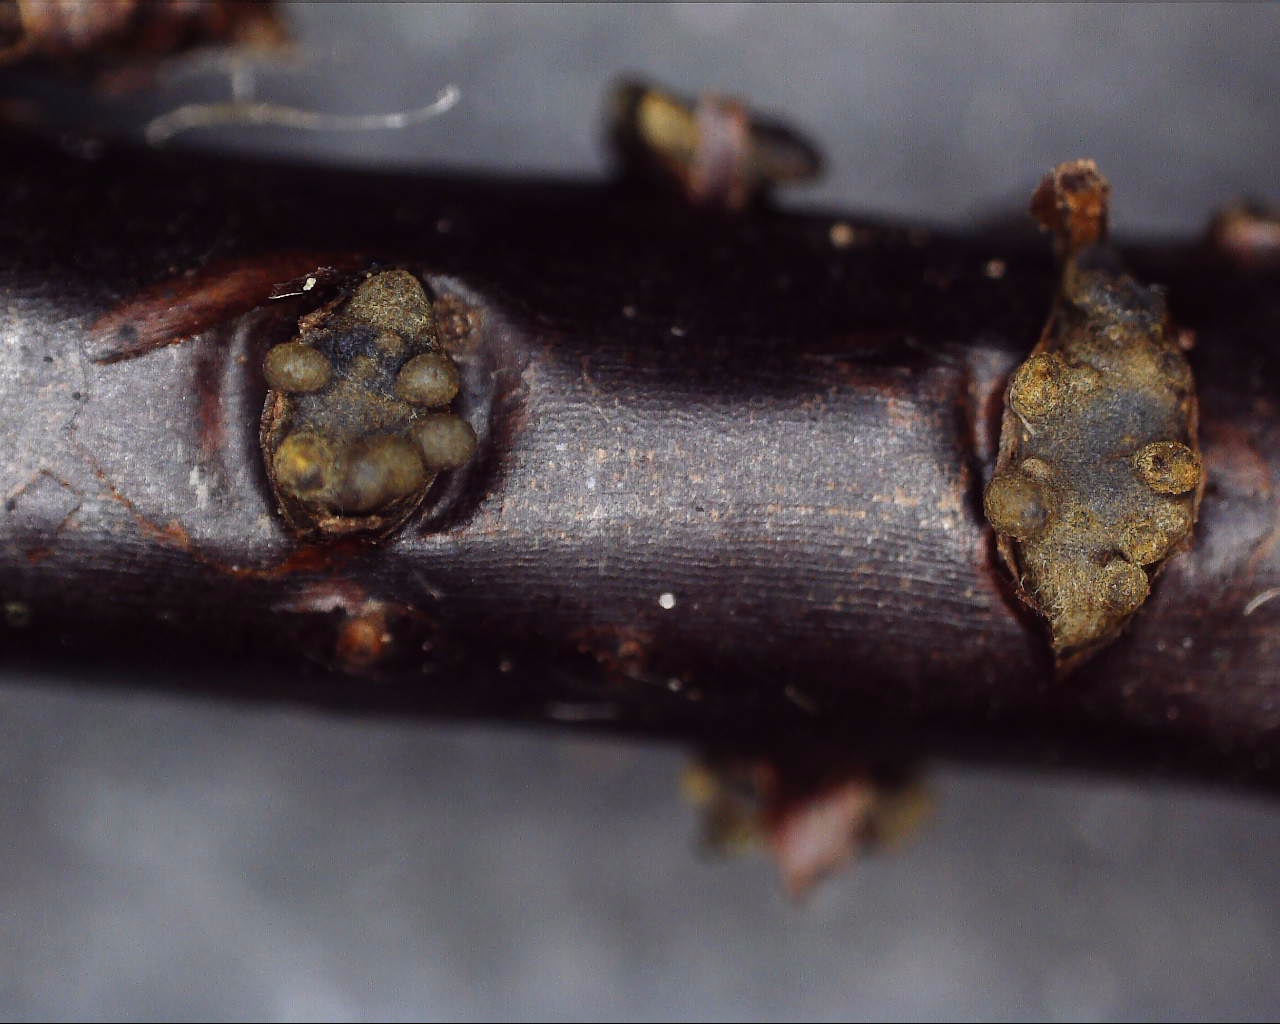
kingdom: Fungi
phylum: Ascomycota
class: Leotiomycetes
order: Helotiales
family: Godroniaceae
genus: Godronia
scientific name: Godronia ribis
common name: ribs-urneskive
